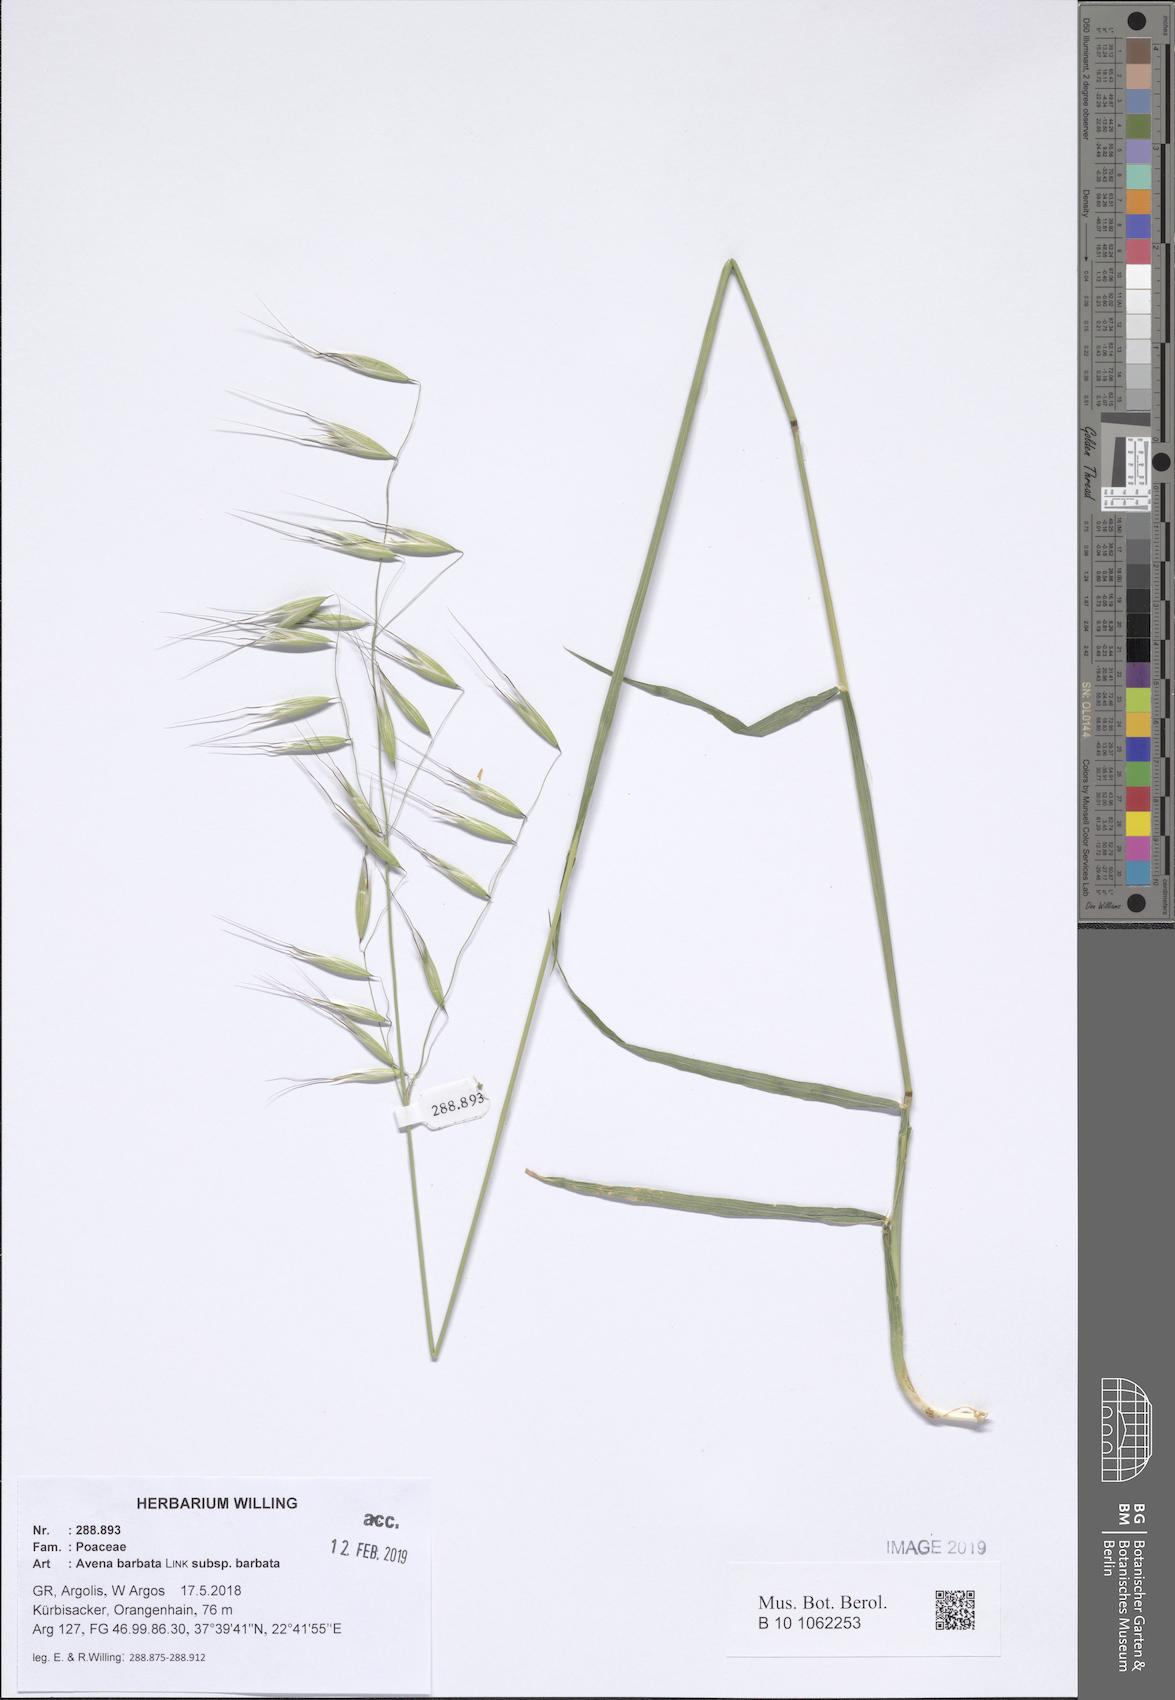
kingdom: Plantae
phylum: Tracheophyta
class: Liliopsida
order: Poales
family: Poaceae
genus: Avena
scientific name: Avena barbata
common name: Slender oat
